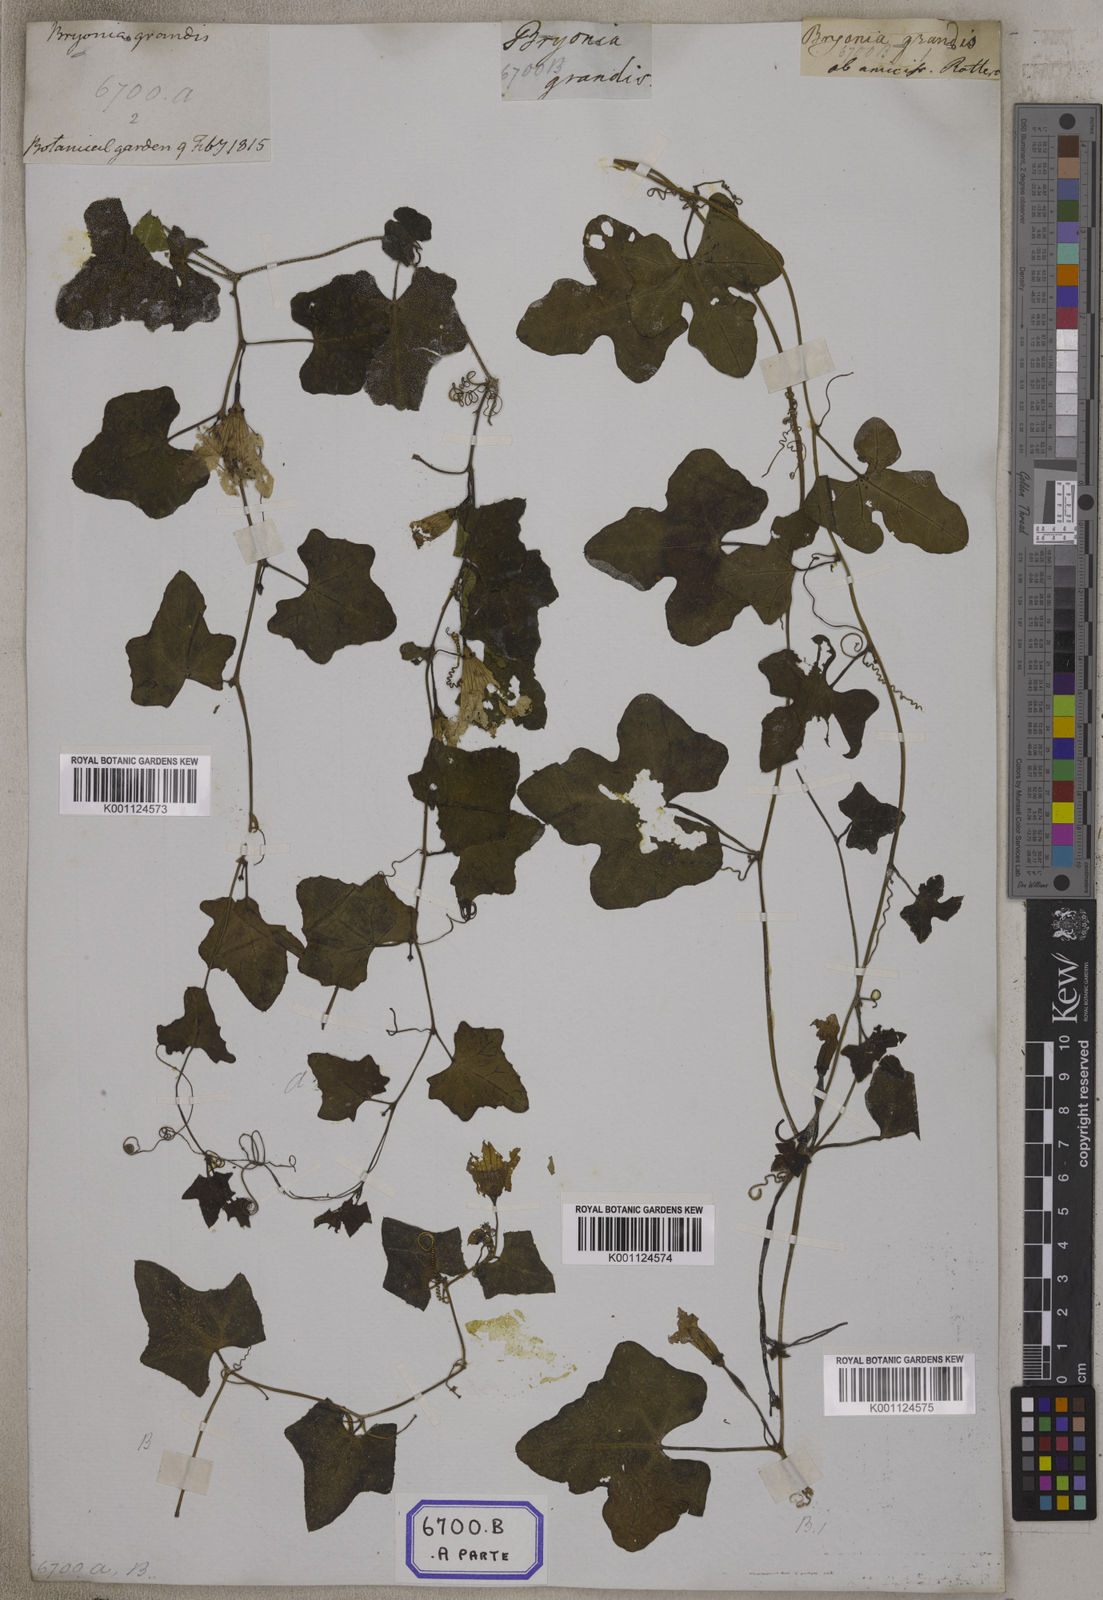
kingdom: Plantae
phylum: Tracheophyta
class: Magnoliopsida
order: Cucurbitales
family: Cucurbitaceae
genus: Bryonia
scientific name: Bryonia
